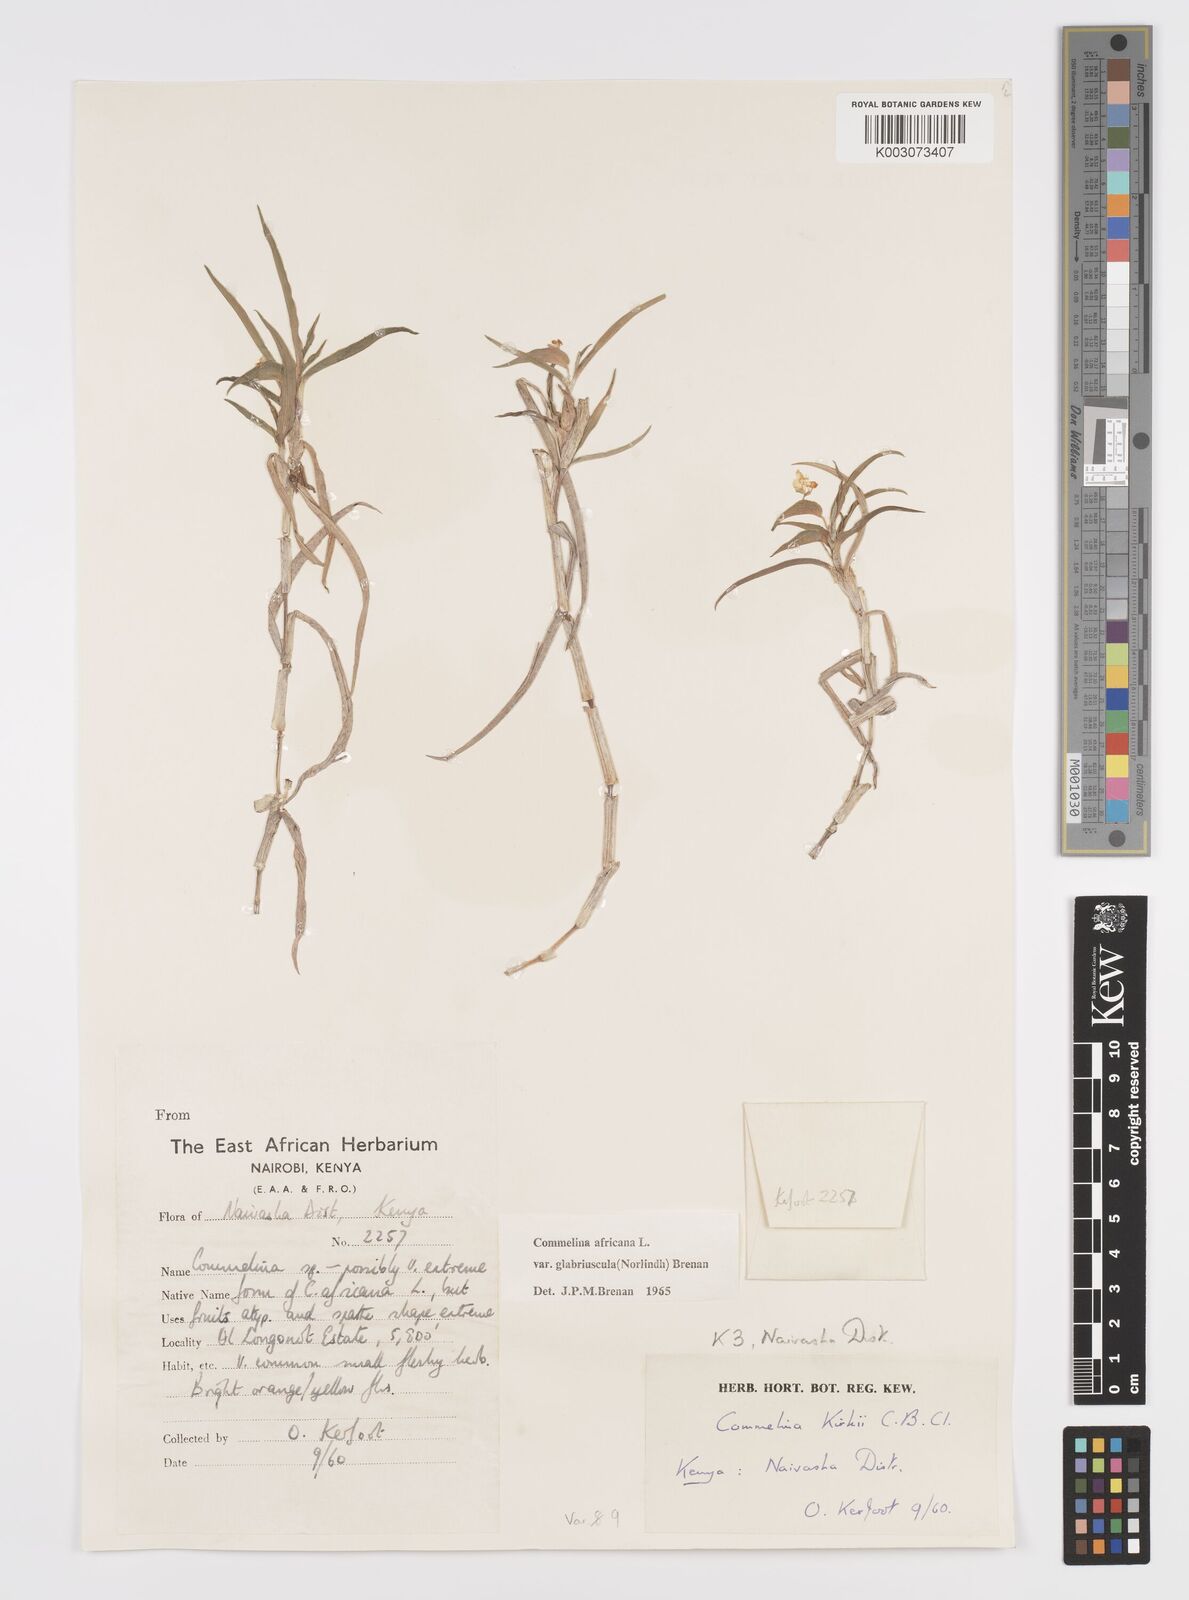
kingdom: Plantae
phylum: Tracheophyta
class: Liliopsida
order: Commelinales
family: Commelinaceae
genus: Commelina
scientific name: Commelina africana
